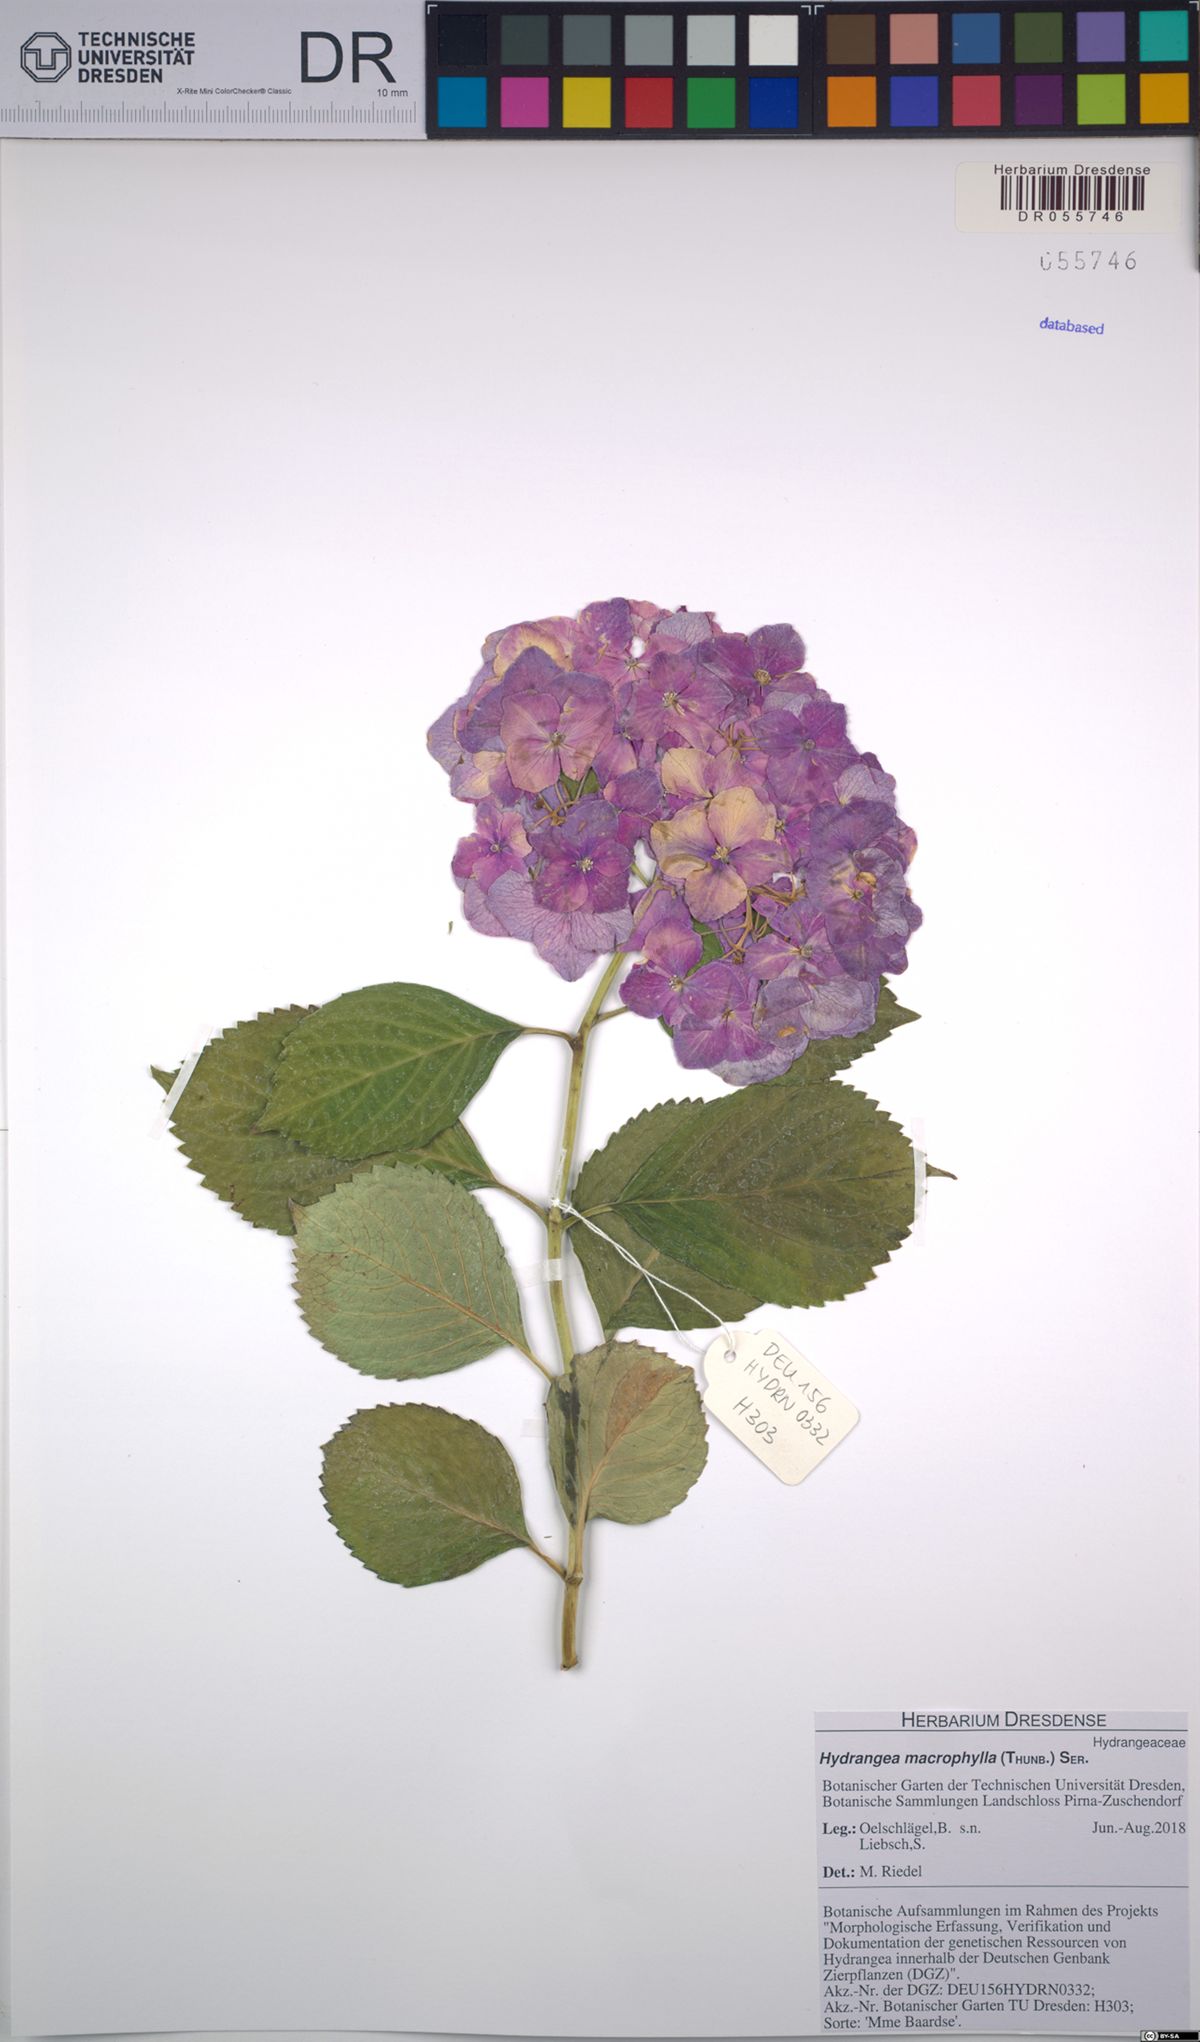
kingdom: Plantae
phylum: Tracheophyta
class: Magnoliopsida
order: Cornales
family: Hydrangeaceae
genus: Hydrangea
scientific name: Hydrangea macrophylla
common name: Hydrangea
